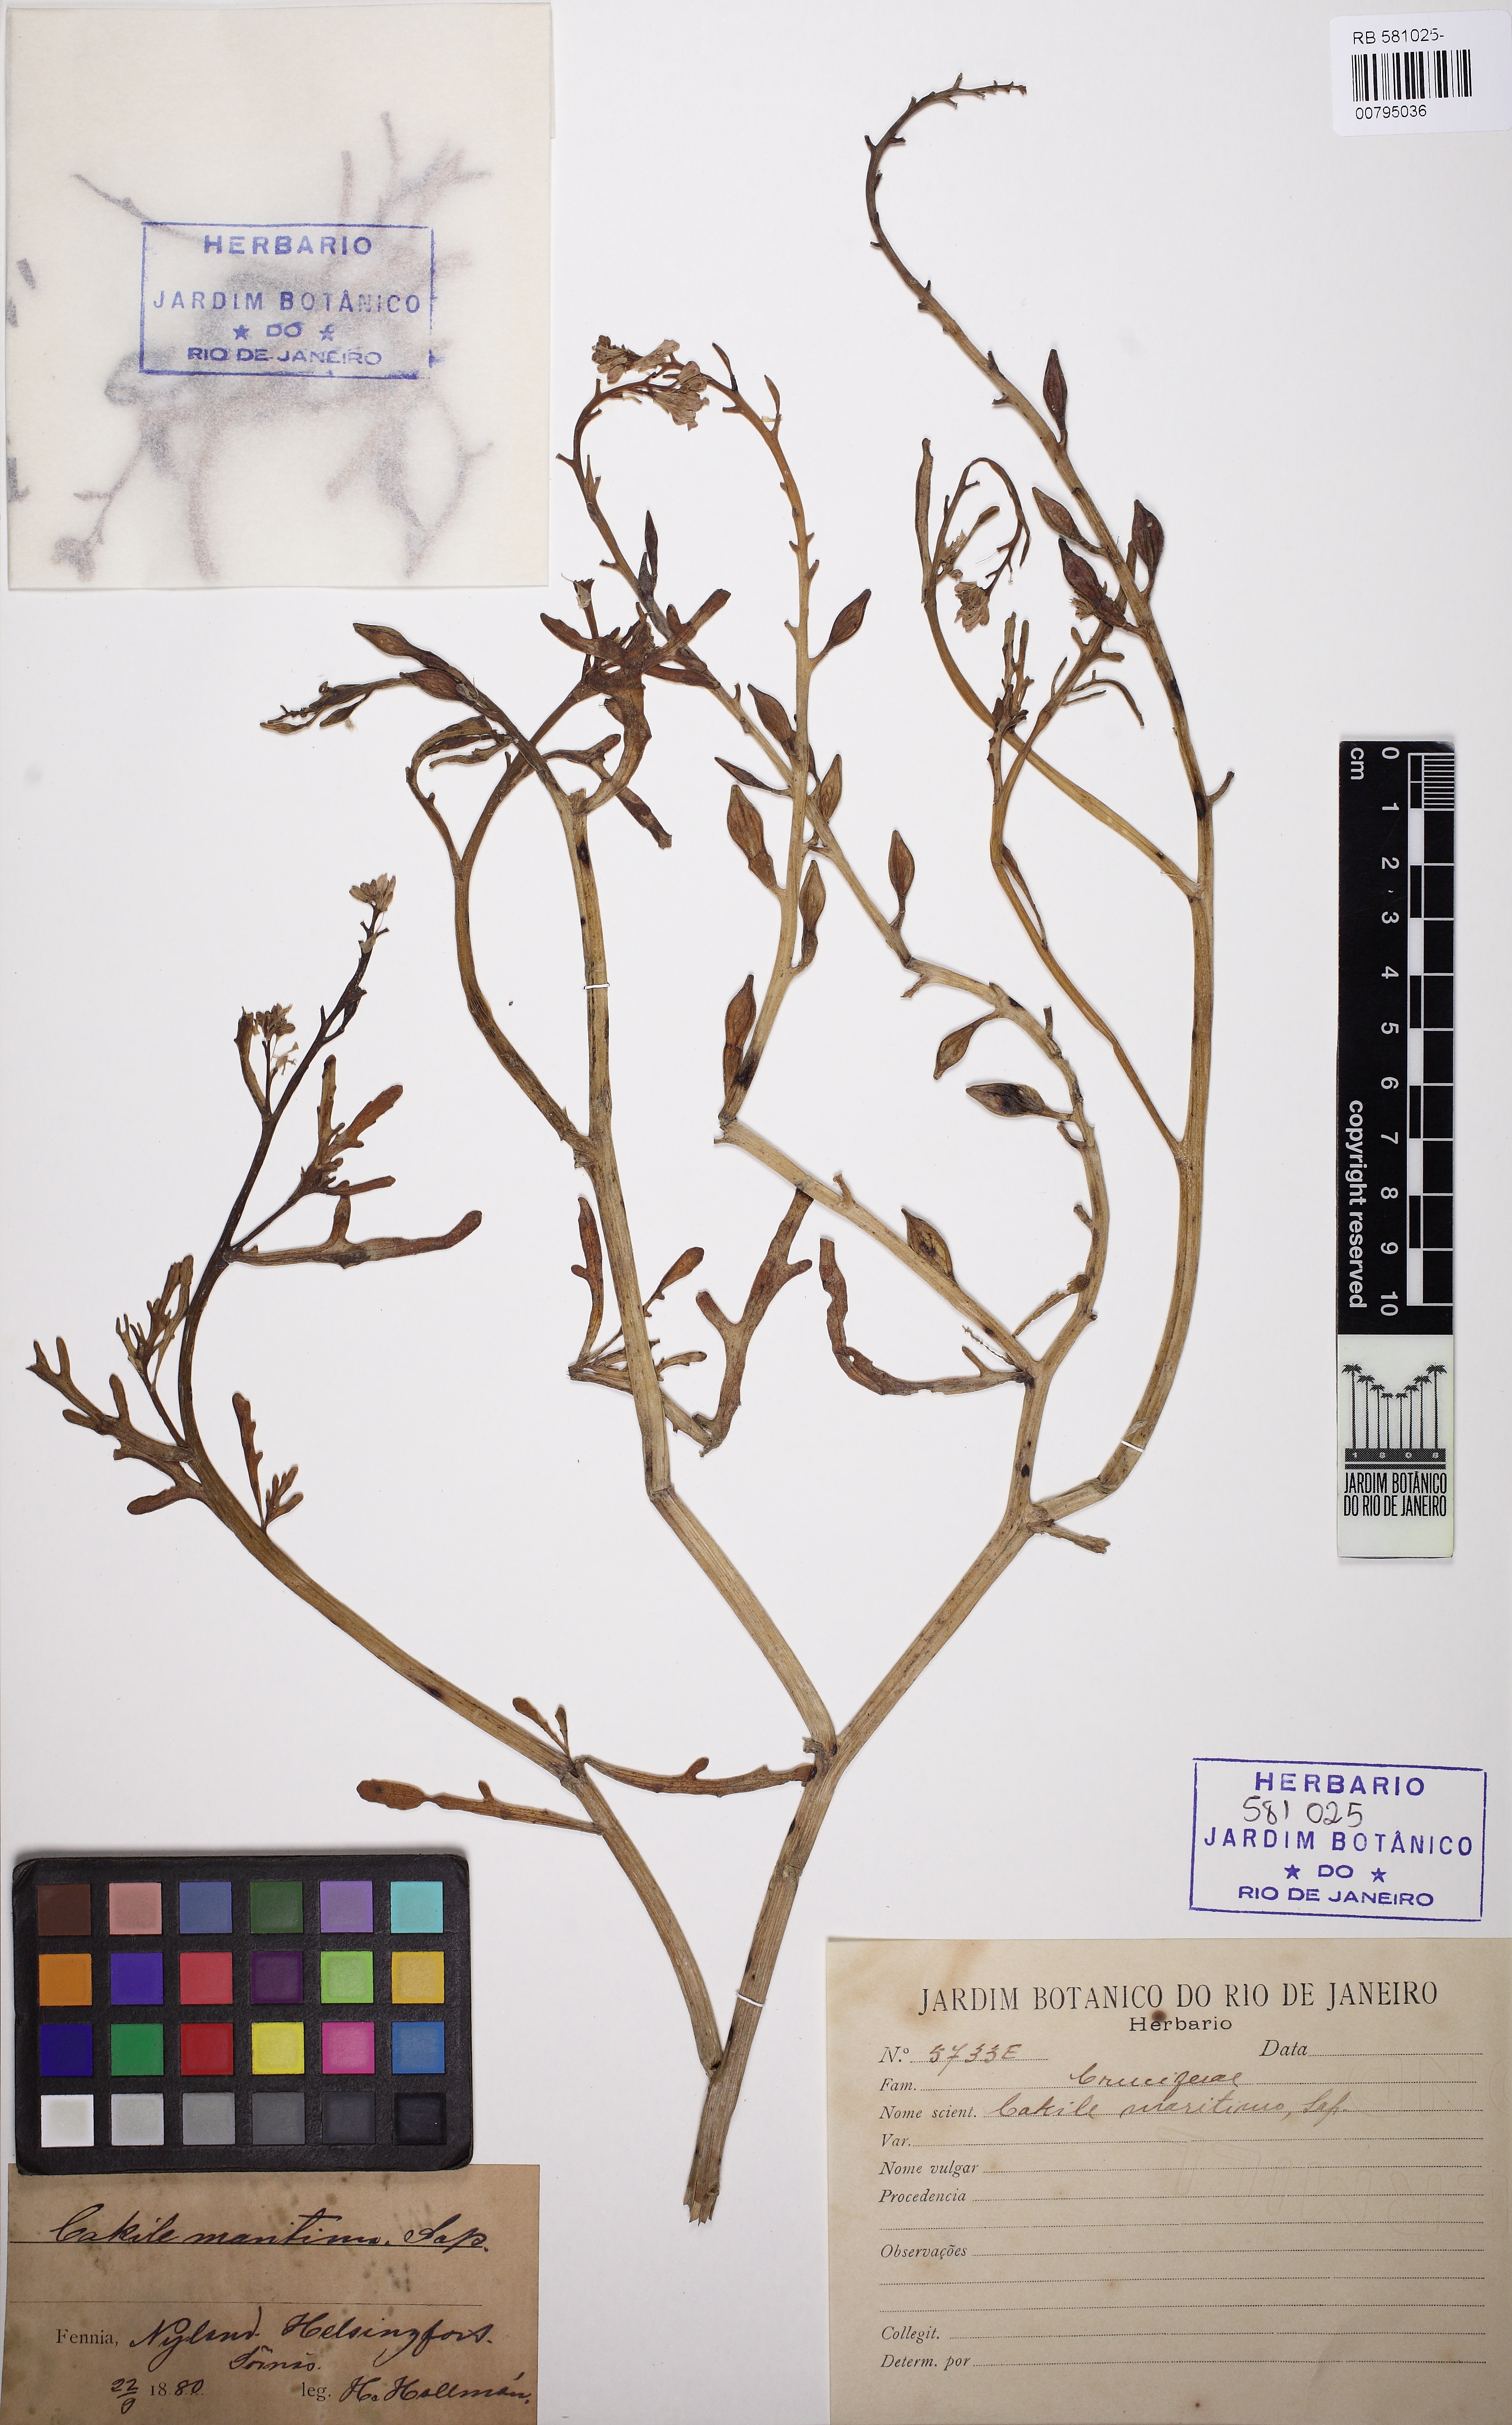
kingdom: Plantae
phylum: Tracheophyta
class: Magnoliopsida
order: Brassicales
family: Brassicaceae
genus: Cakile
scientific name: Cakile maritima
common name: Sea rocket
